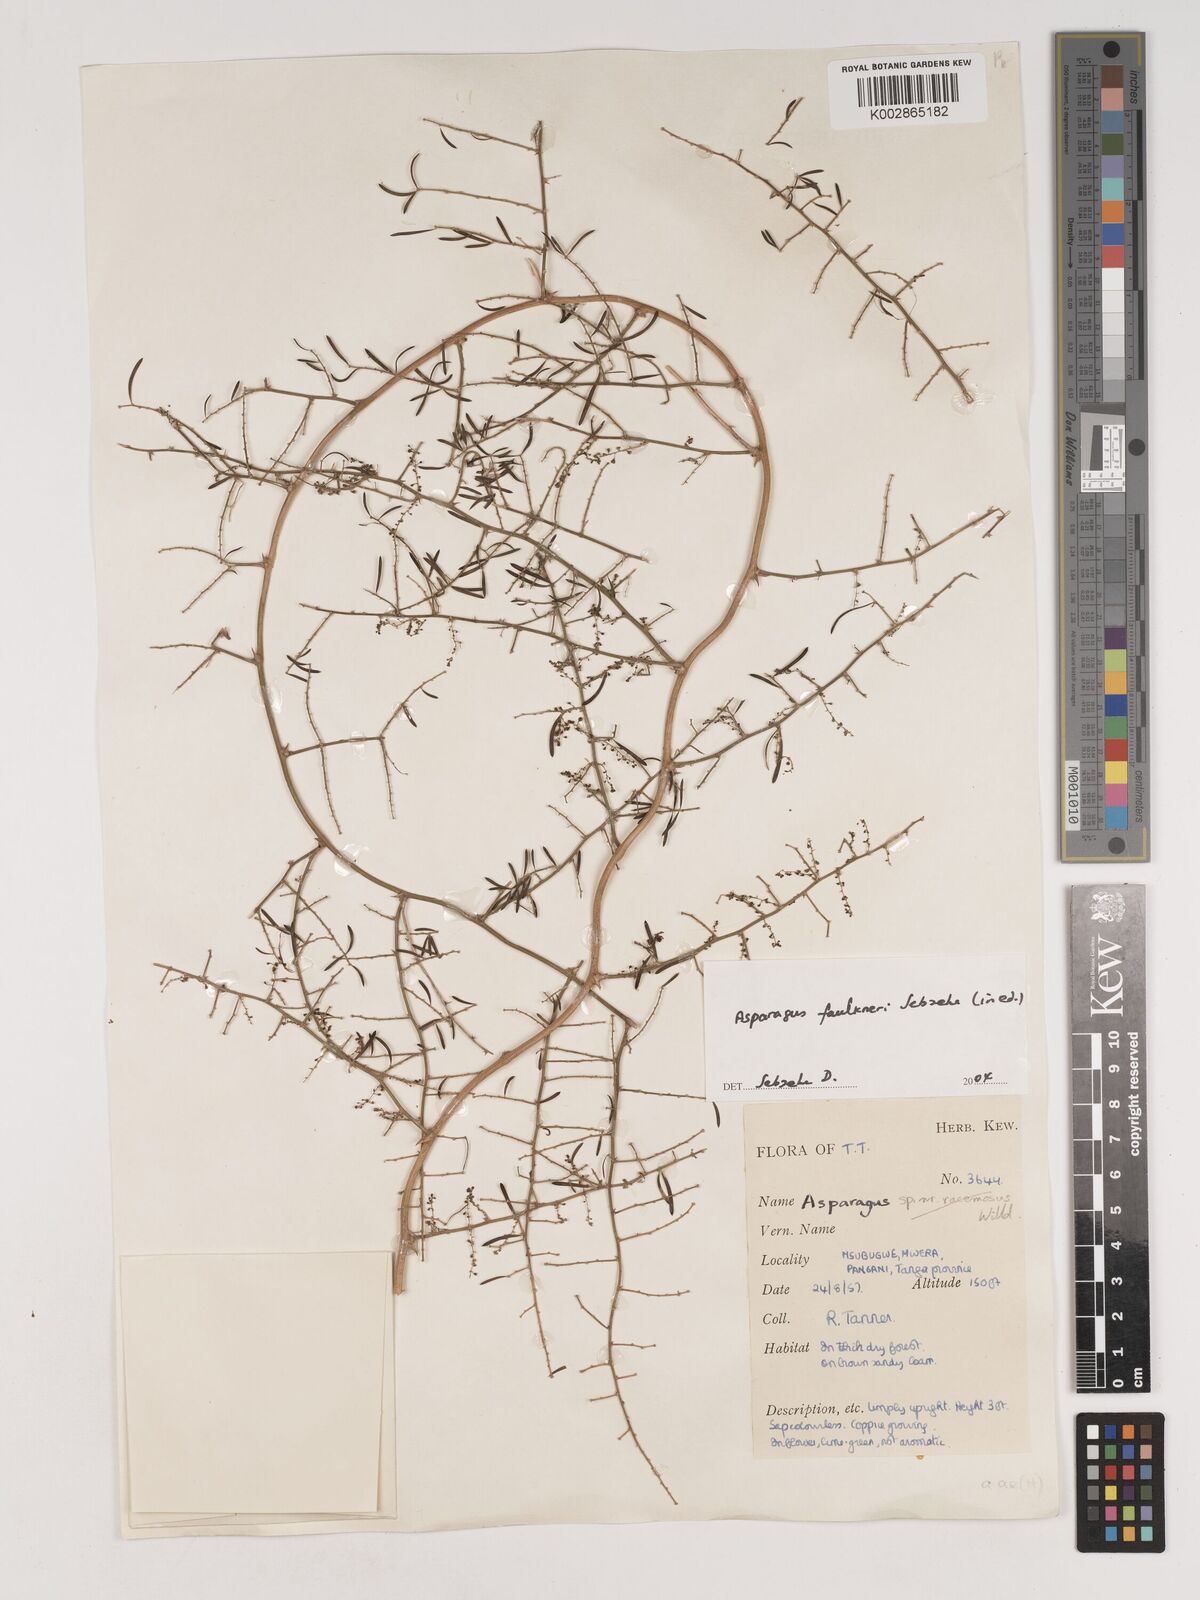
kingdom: Plantae
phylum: Tracheophyta
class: Liliopsida
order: Asparagales
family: Asparagaceae
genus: Asparagus
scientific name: Asparagus faulkneri
